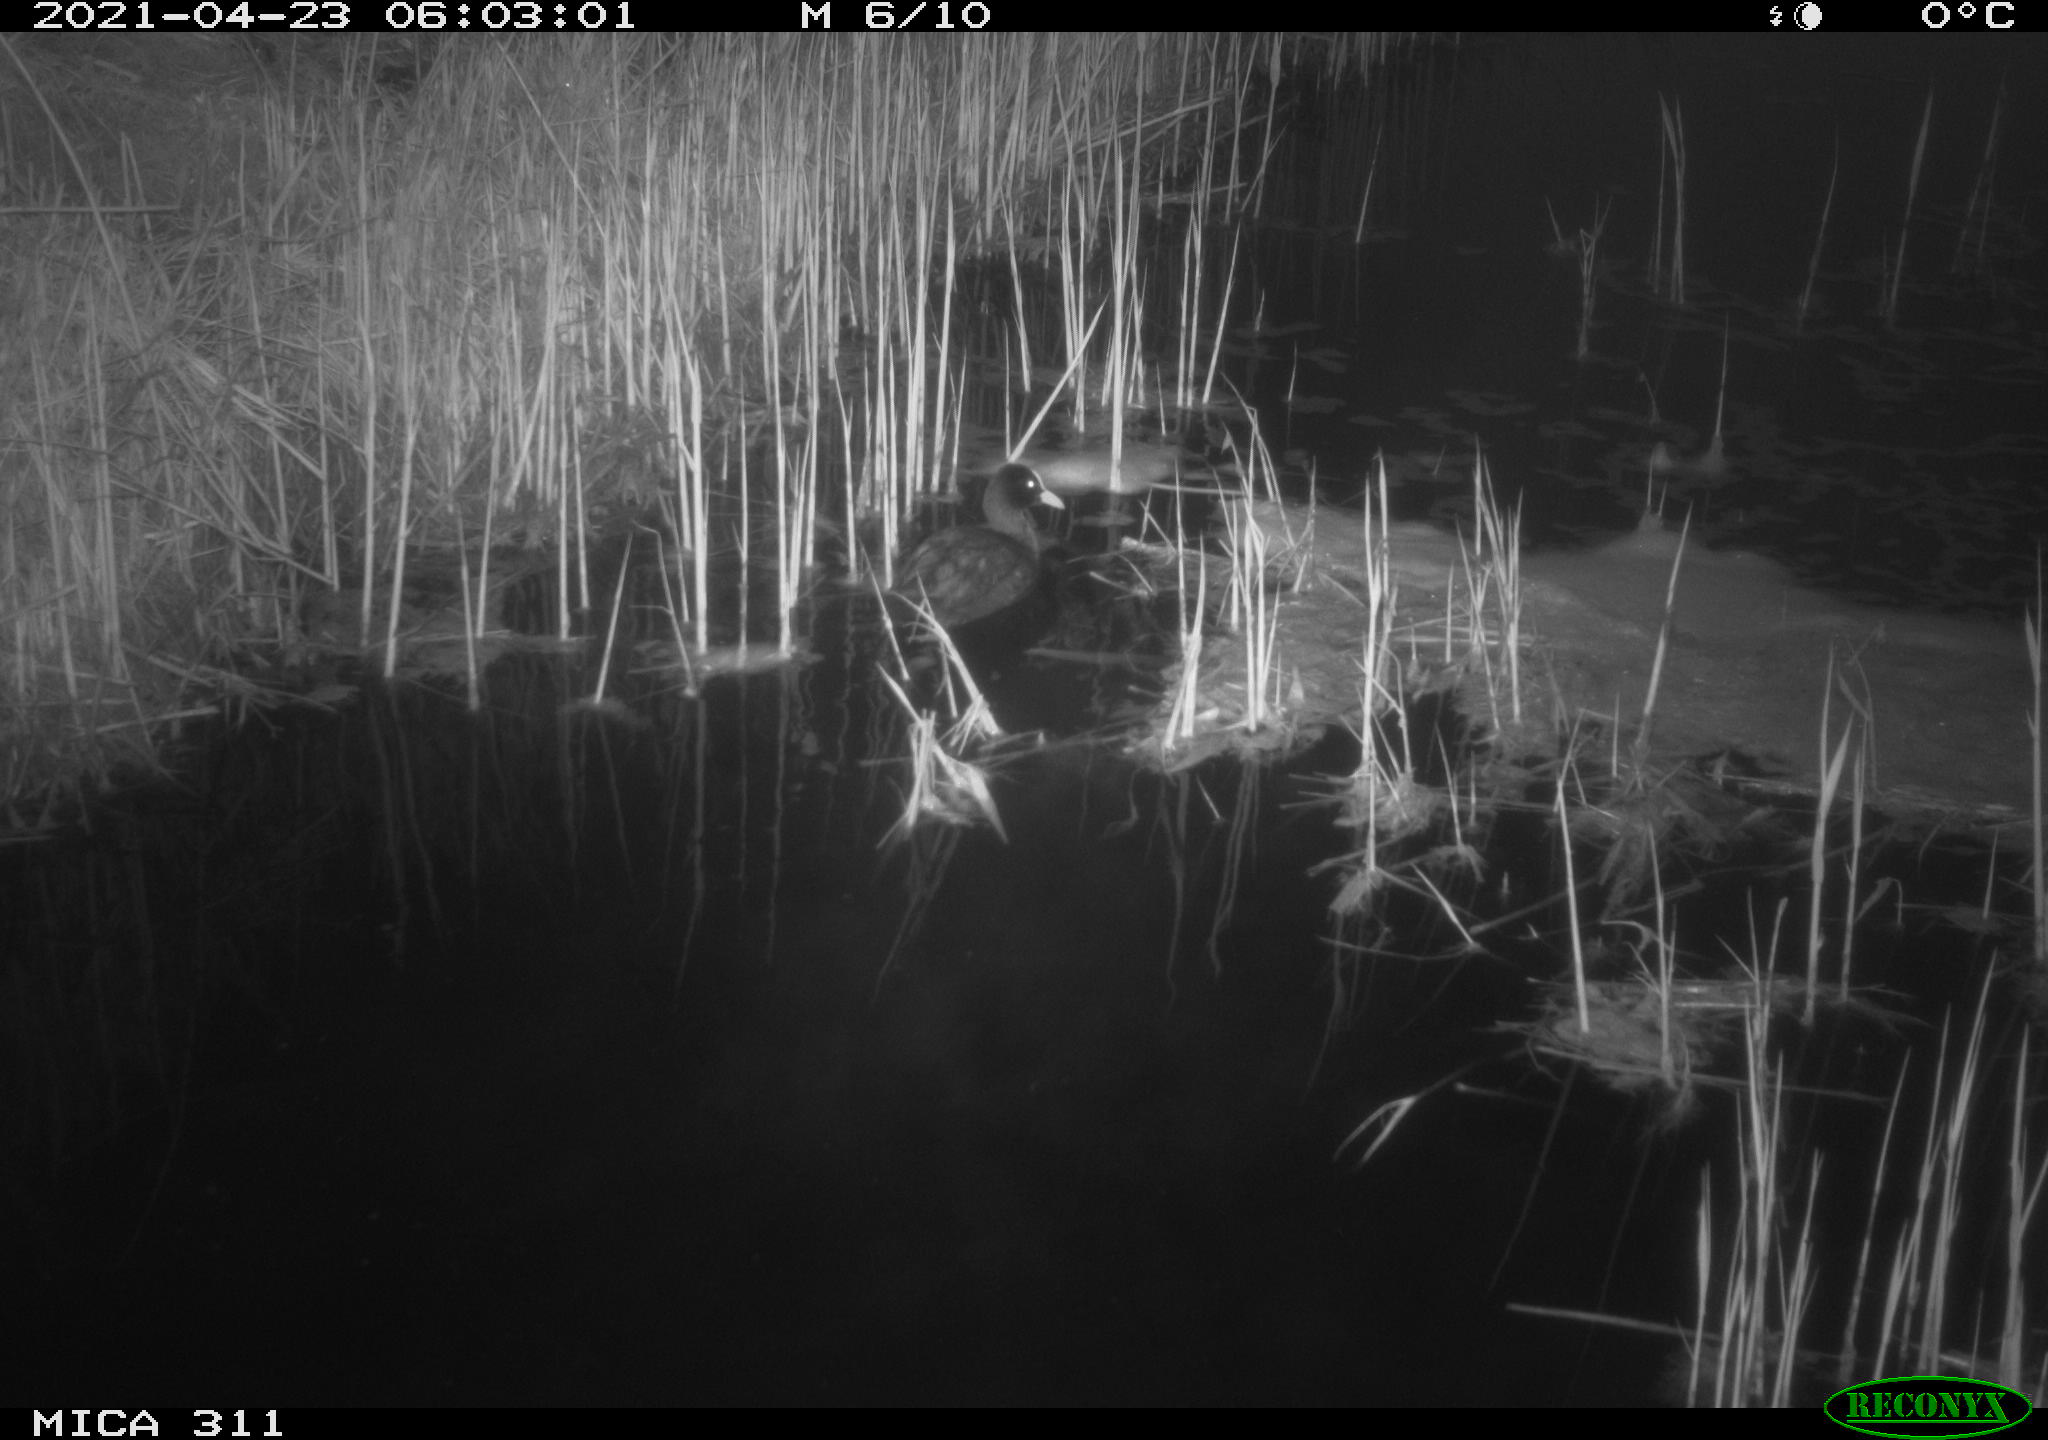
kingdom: Animalia
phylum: Chordata
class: Aves
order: Gruiformes
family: Rallidae
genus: Fulica
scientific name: Fulica atra
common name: Eurasian coot
